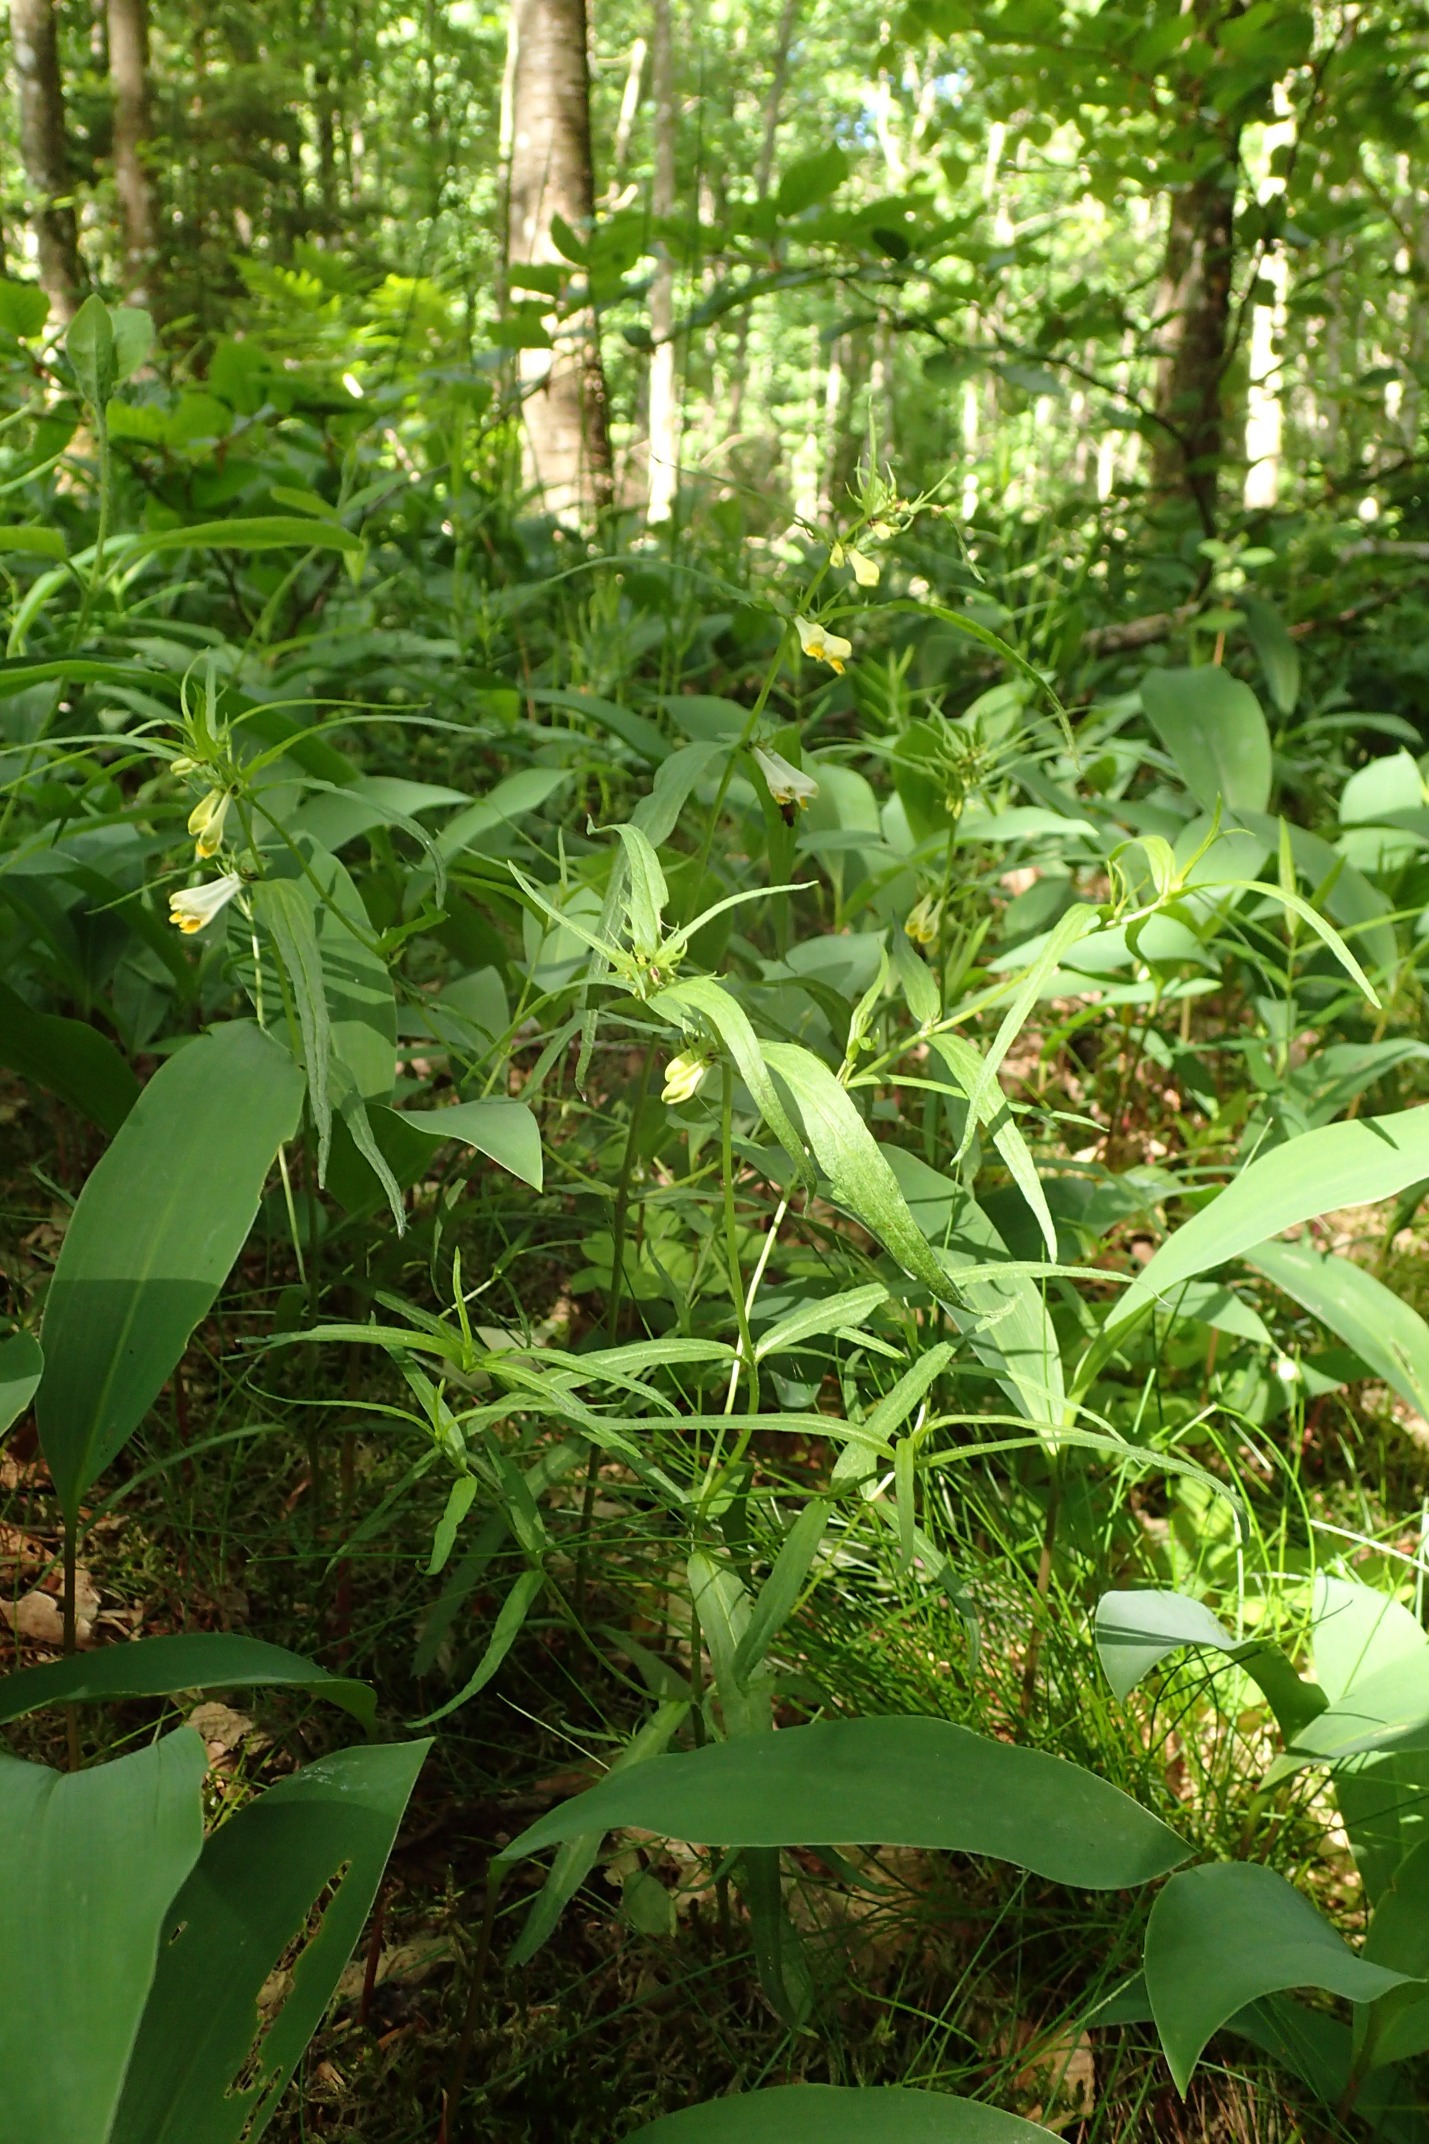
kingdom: Plantae
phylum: Tracheophyta
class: Magnoliopsida
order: Lamiales
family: Orobanchaceae
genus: Melampyrum
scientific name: Melampyrum pratense
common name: Almindelig kohvede
